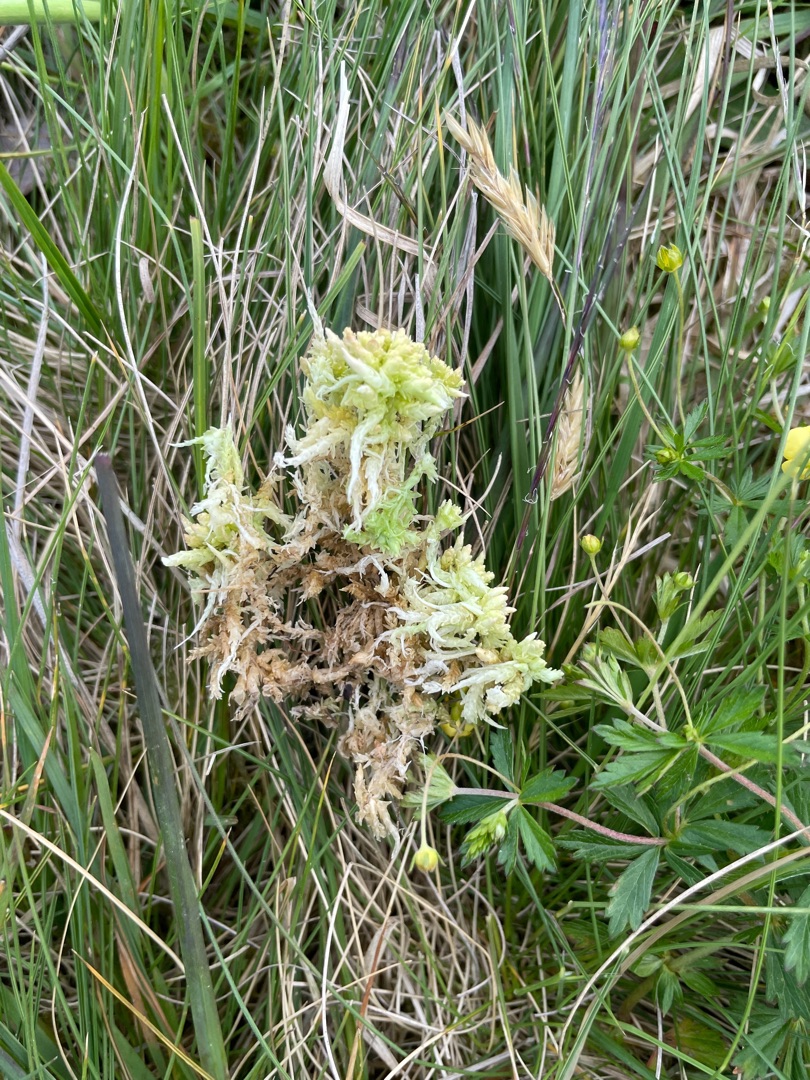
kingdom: Plantae
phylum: Bryophyta
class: Sphagnopsida
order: Sphagnales
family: Sphagnaceae
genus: Sphagnum
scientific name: Sphagnum palustre
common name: Almindelig tørvemos
